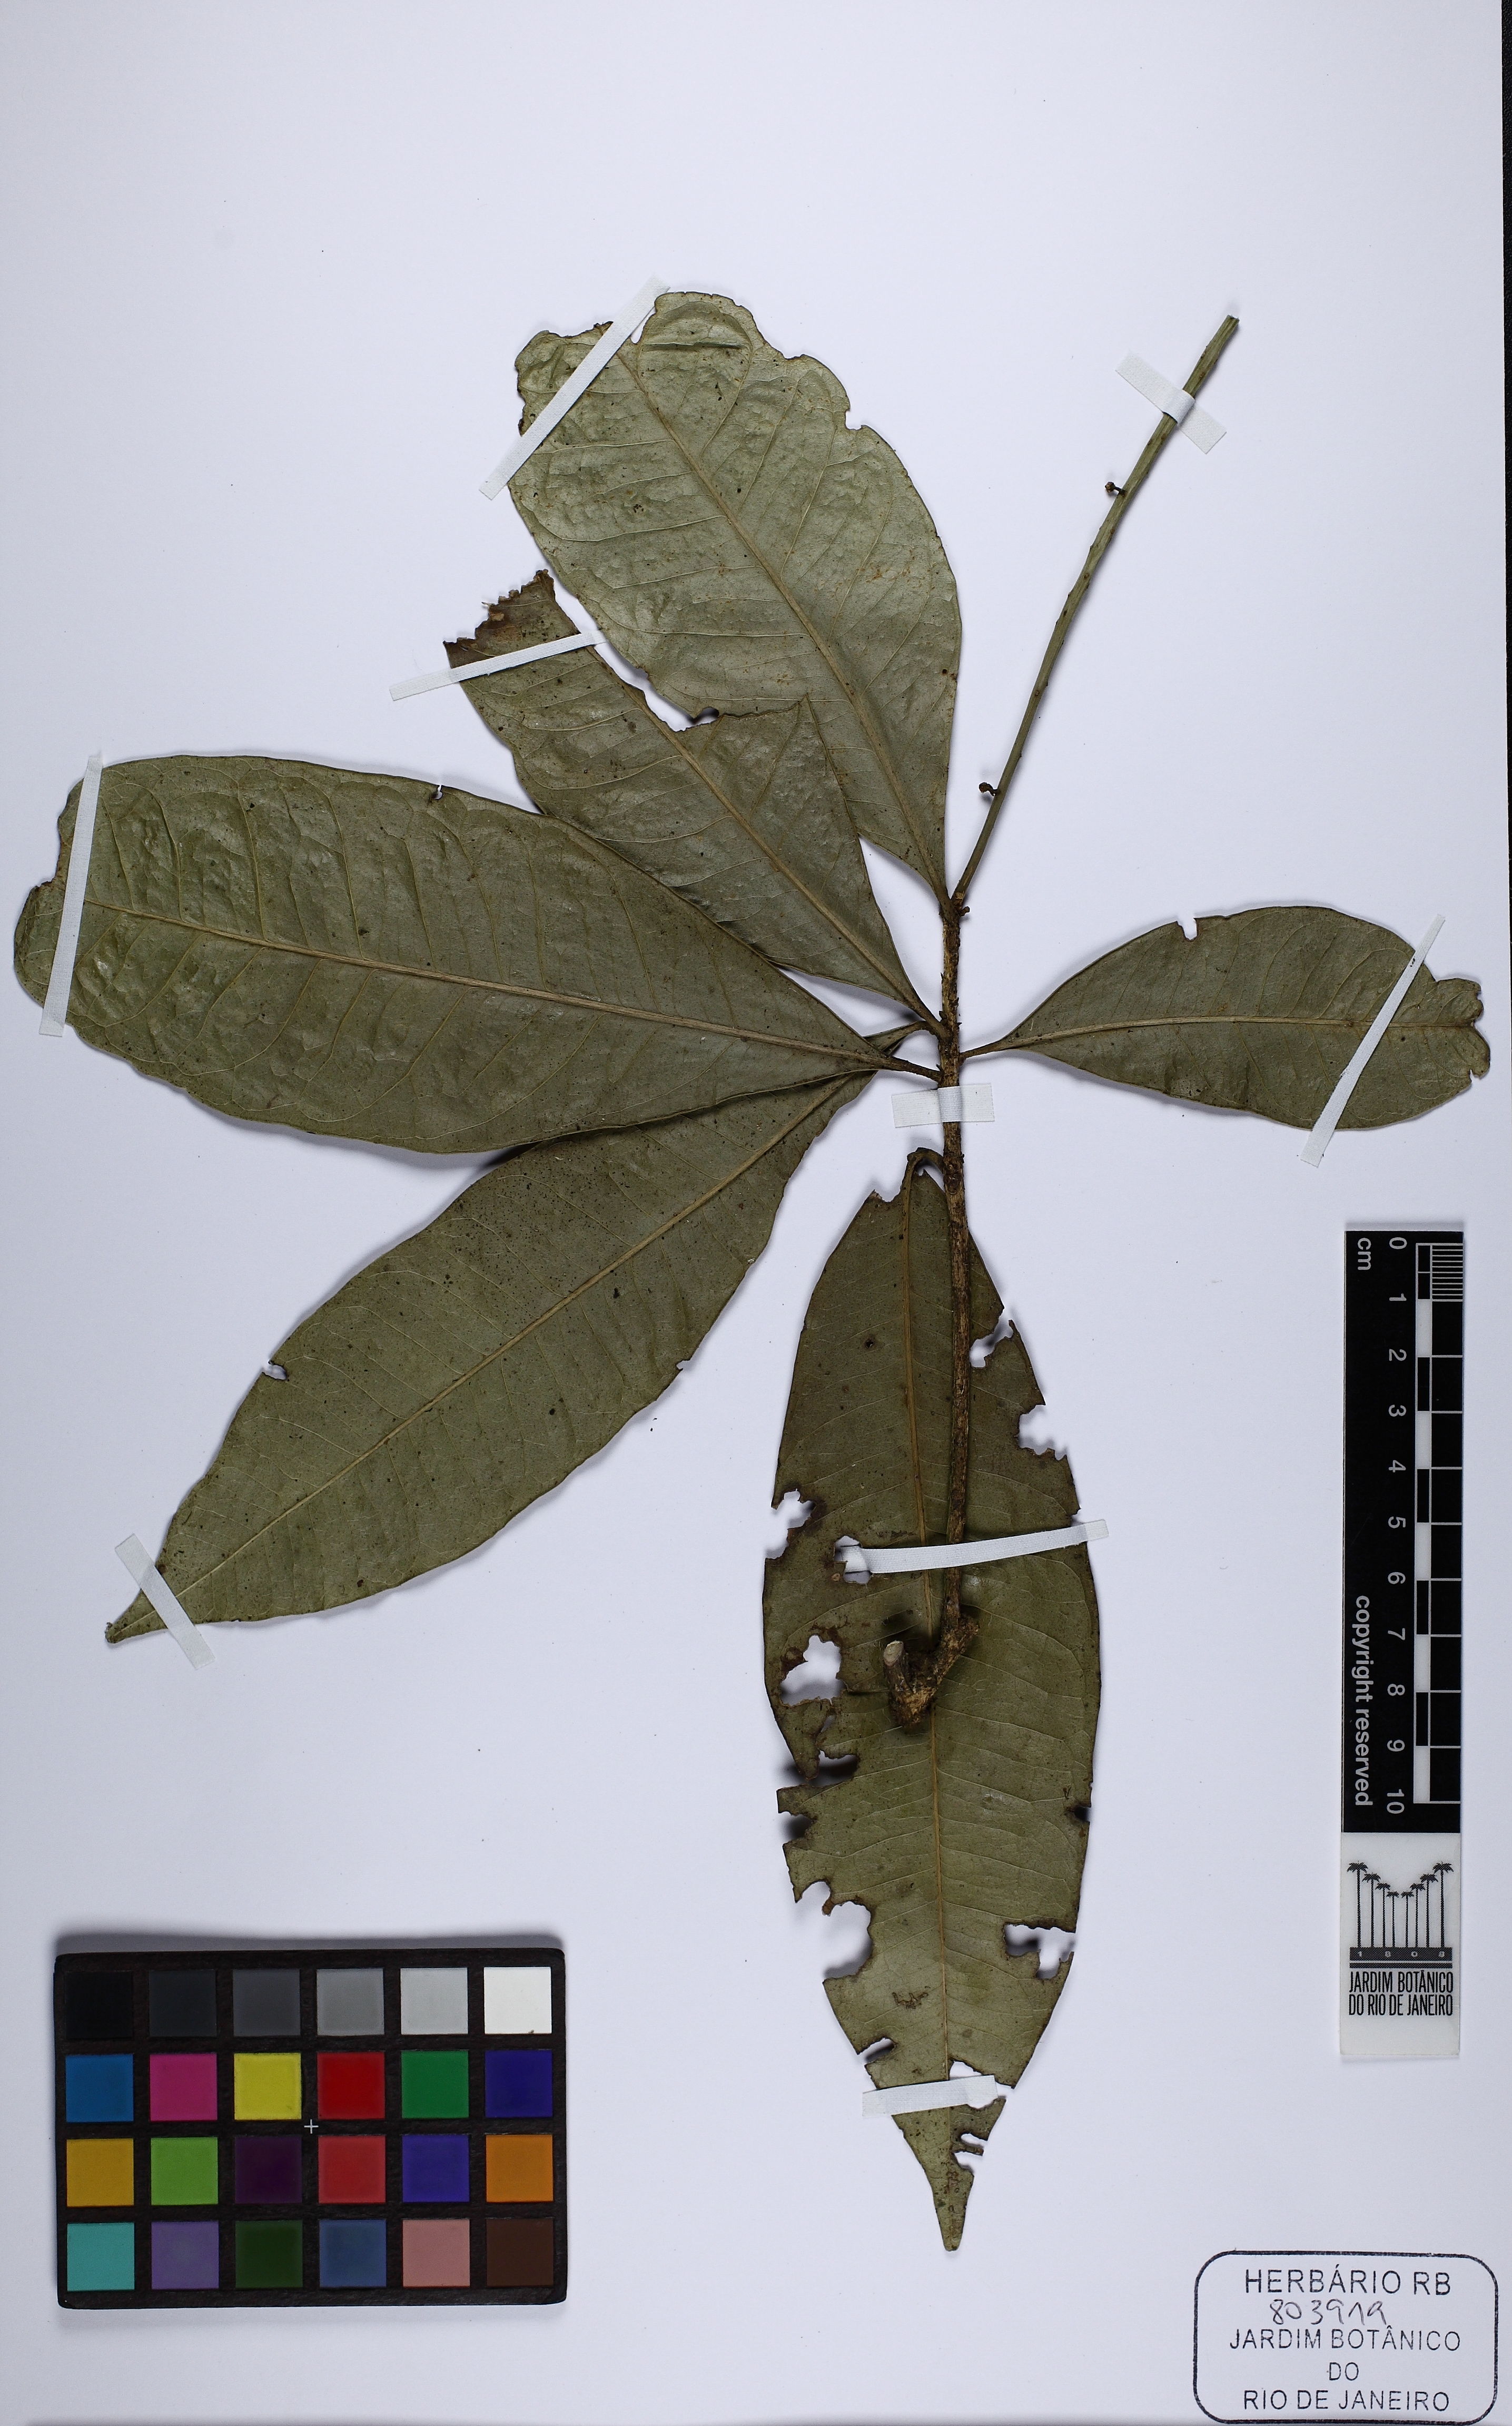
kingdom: Plantae
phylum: Tracheophyta
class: Magnoliopsida
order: Sapindales
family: Rutaceae
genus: Pilocarpus
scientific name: Pilocarpus manuensis
